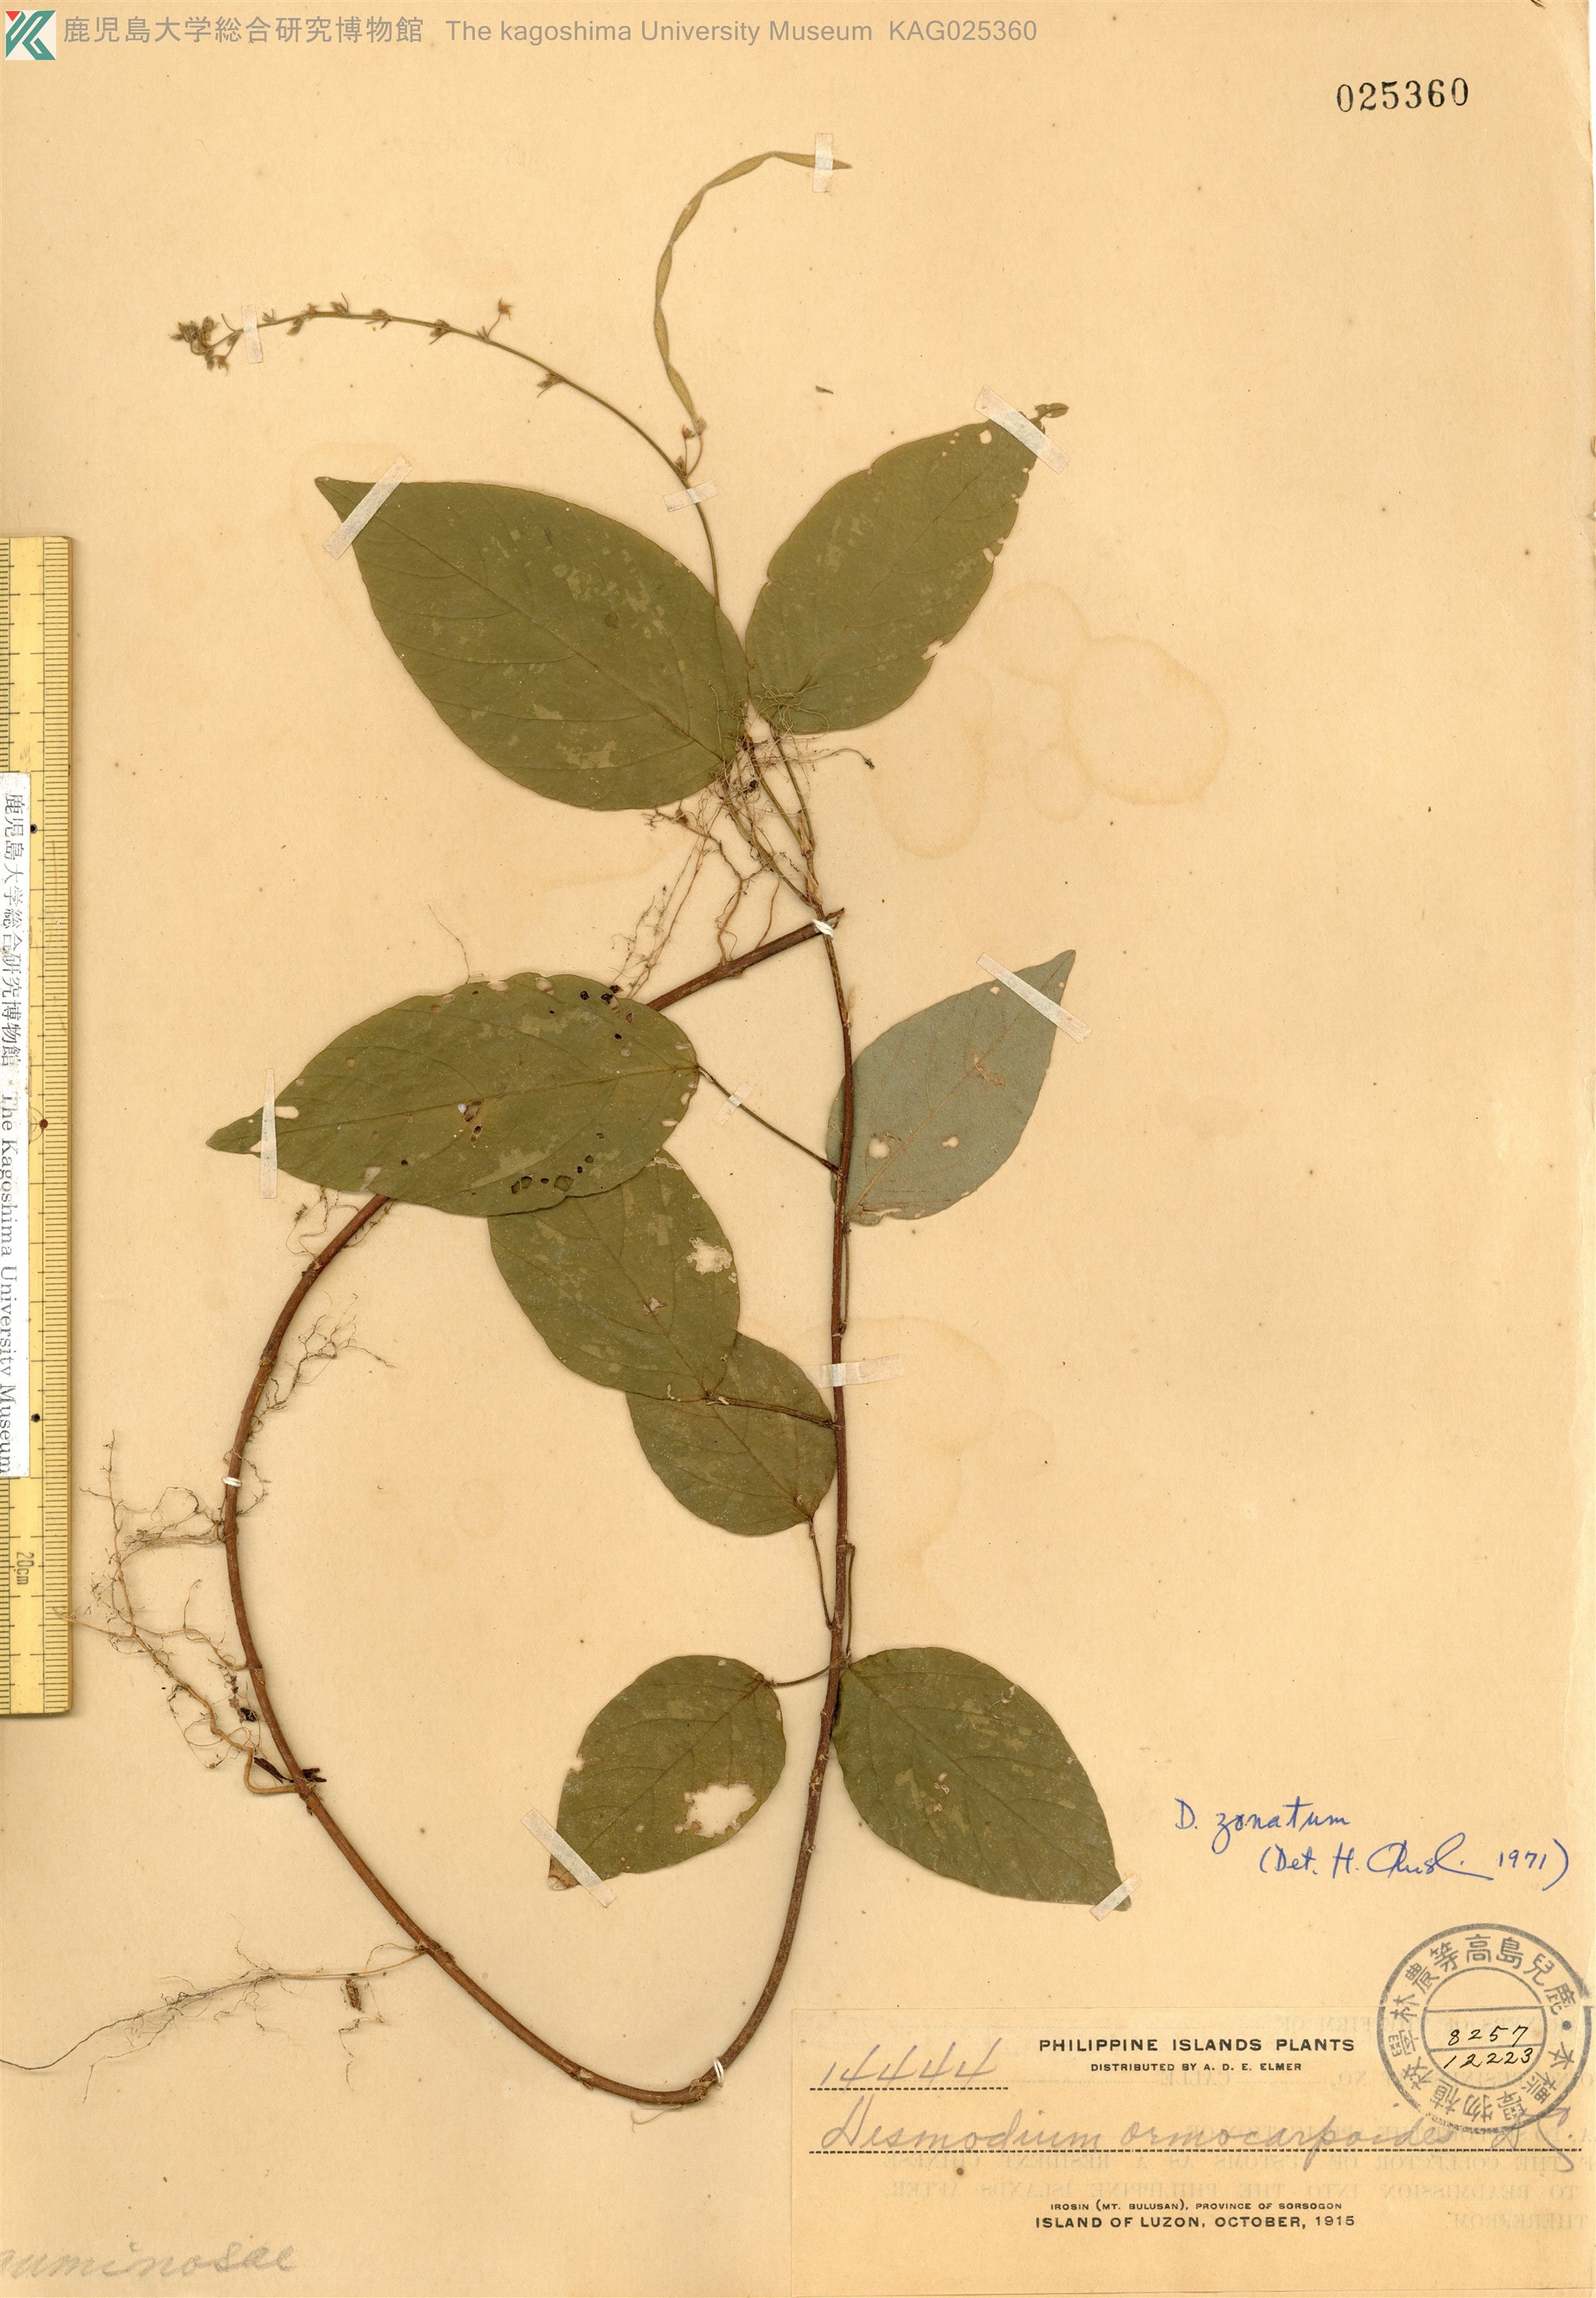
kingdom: Plantae
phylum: Tracheophyta
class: Magnoliopsida
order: Fabales
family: Fabaceae
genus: Sohmaea
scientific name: Sohmaea zonata
